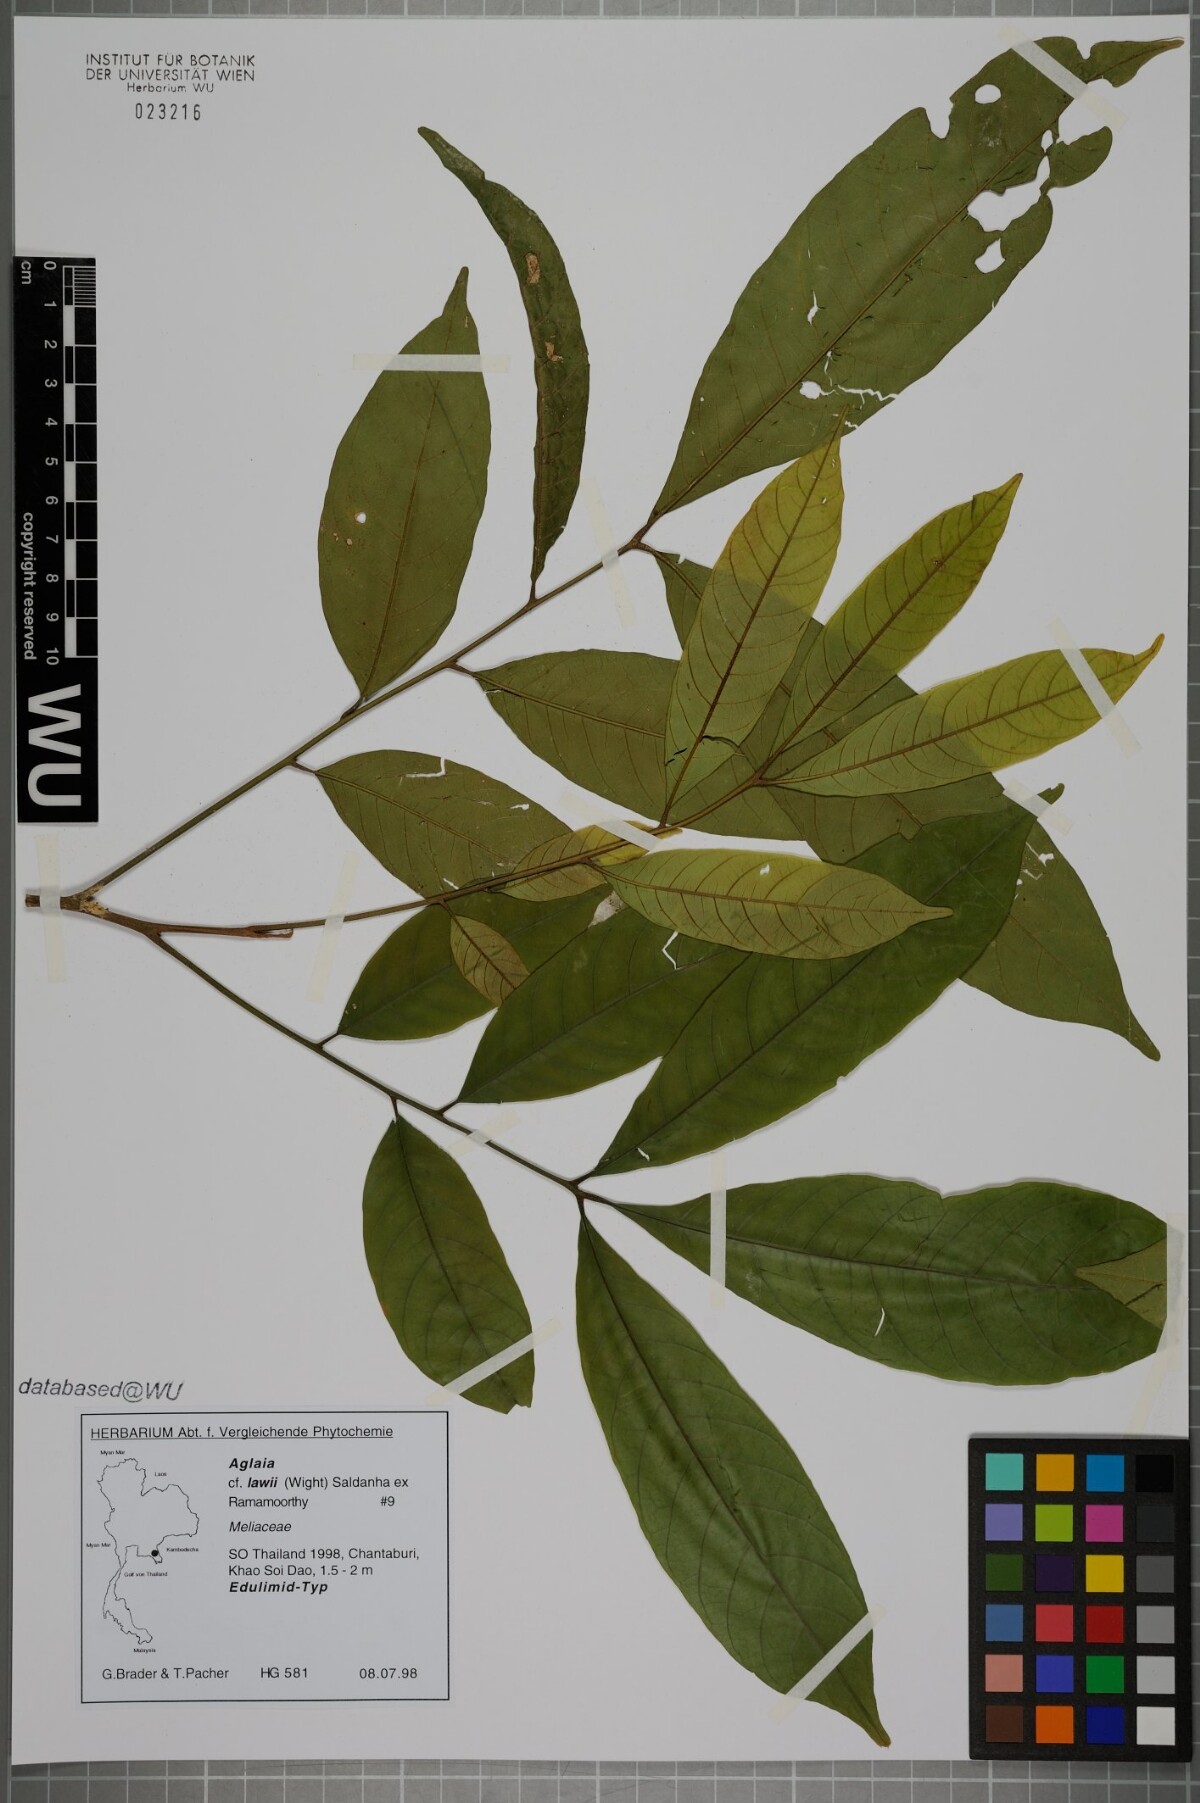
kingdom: Plantae
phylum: Tracheophyta
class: Magnoliopsida
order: Sapindales
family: Meliaceae
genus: Aglaia
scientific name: Aglaia lawii
